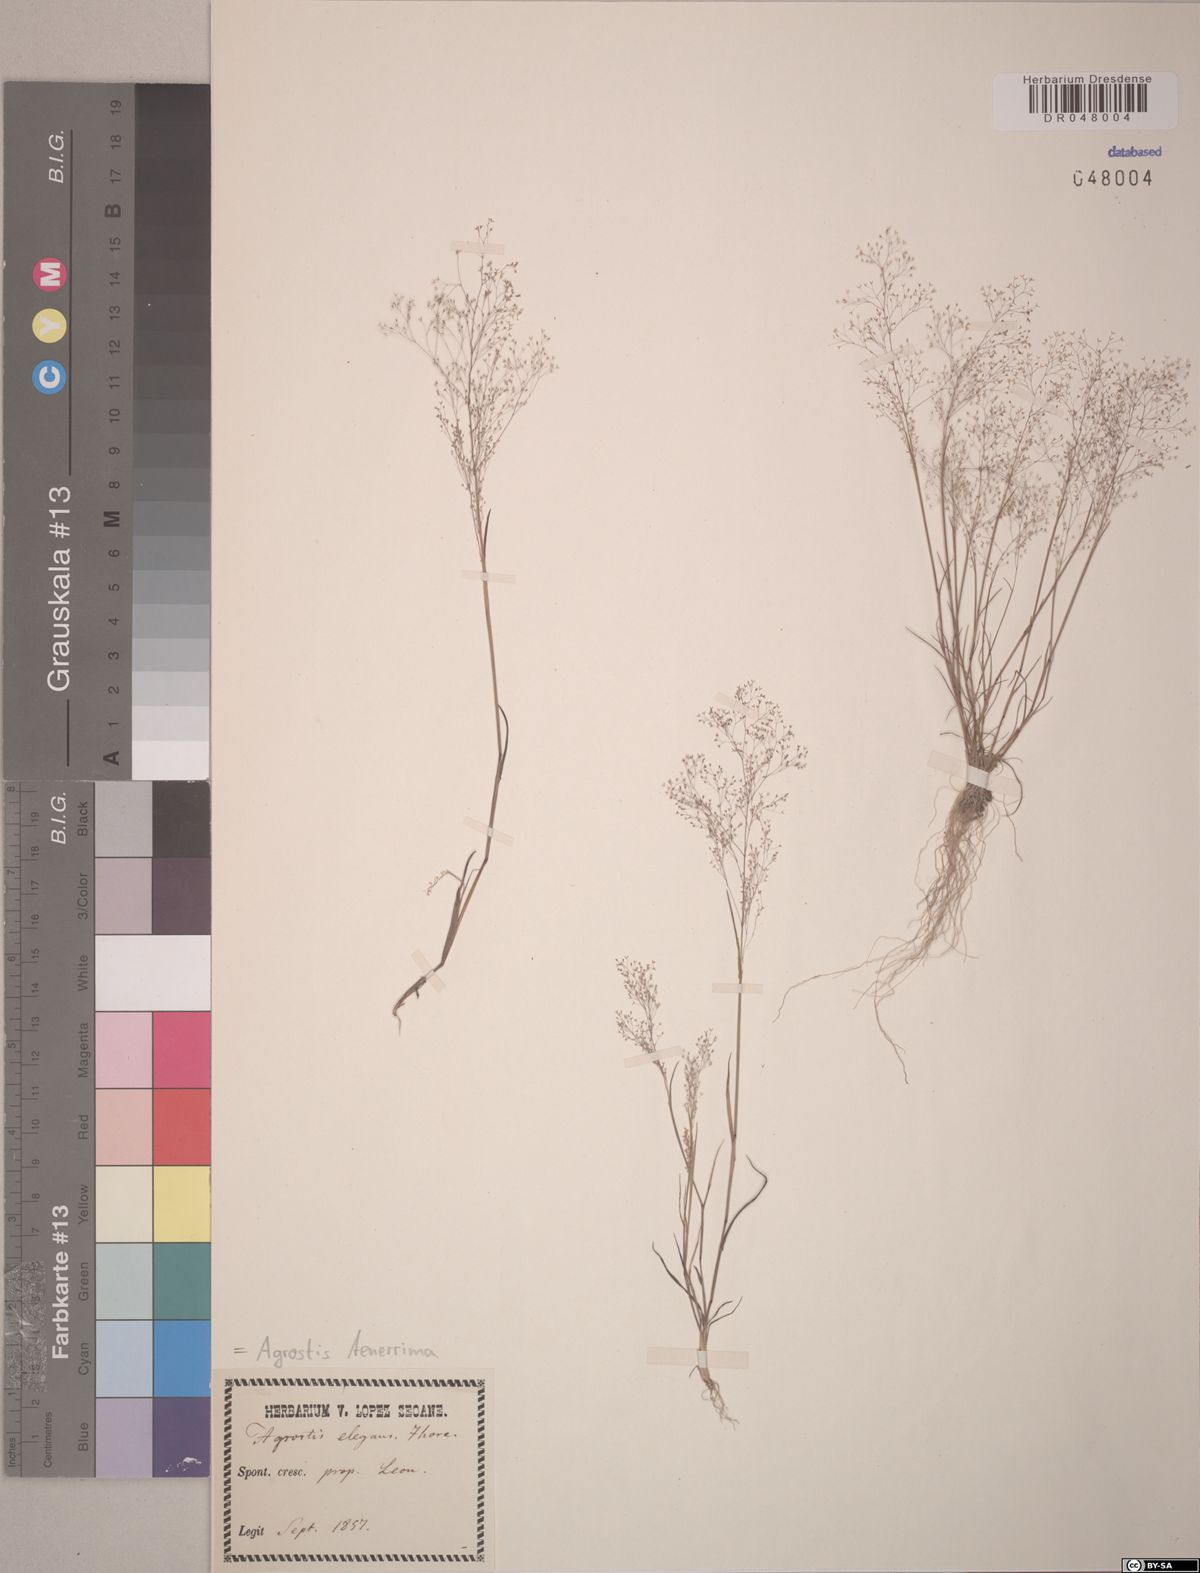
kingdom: Plantae
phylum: Tracheophyta
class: Liliopsida
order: Poales
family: Poaceae
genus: Agrostis
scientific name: Agrostis tenerrima
